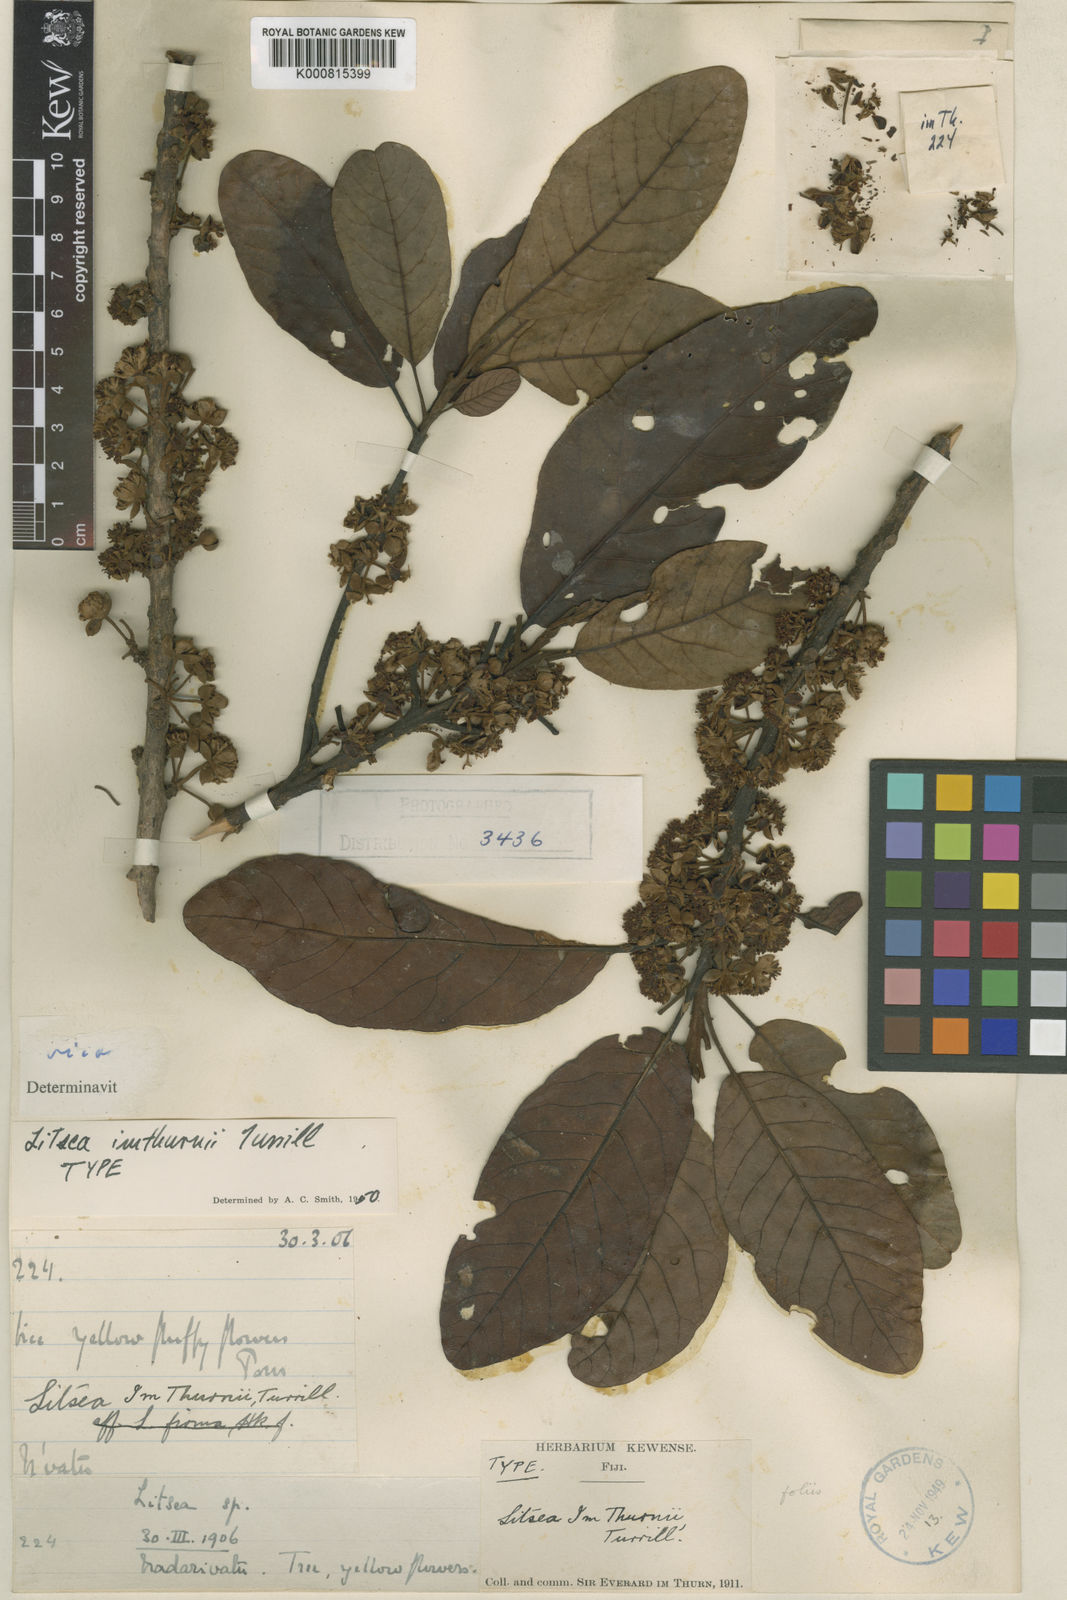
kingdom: Plantae
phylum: Tracheophyta
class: Magnoliopsida
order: Laurales
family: Lauraceae
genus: Litsea
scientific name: Litsea imthurnii
